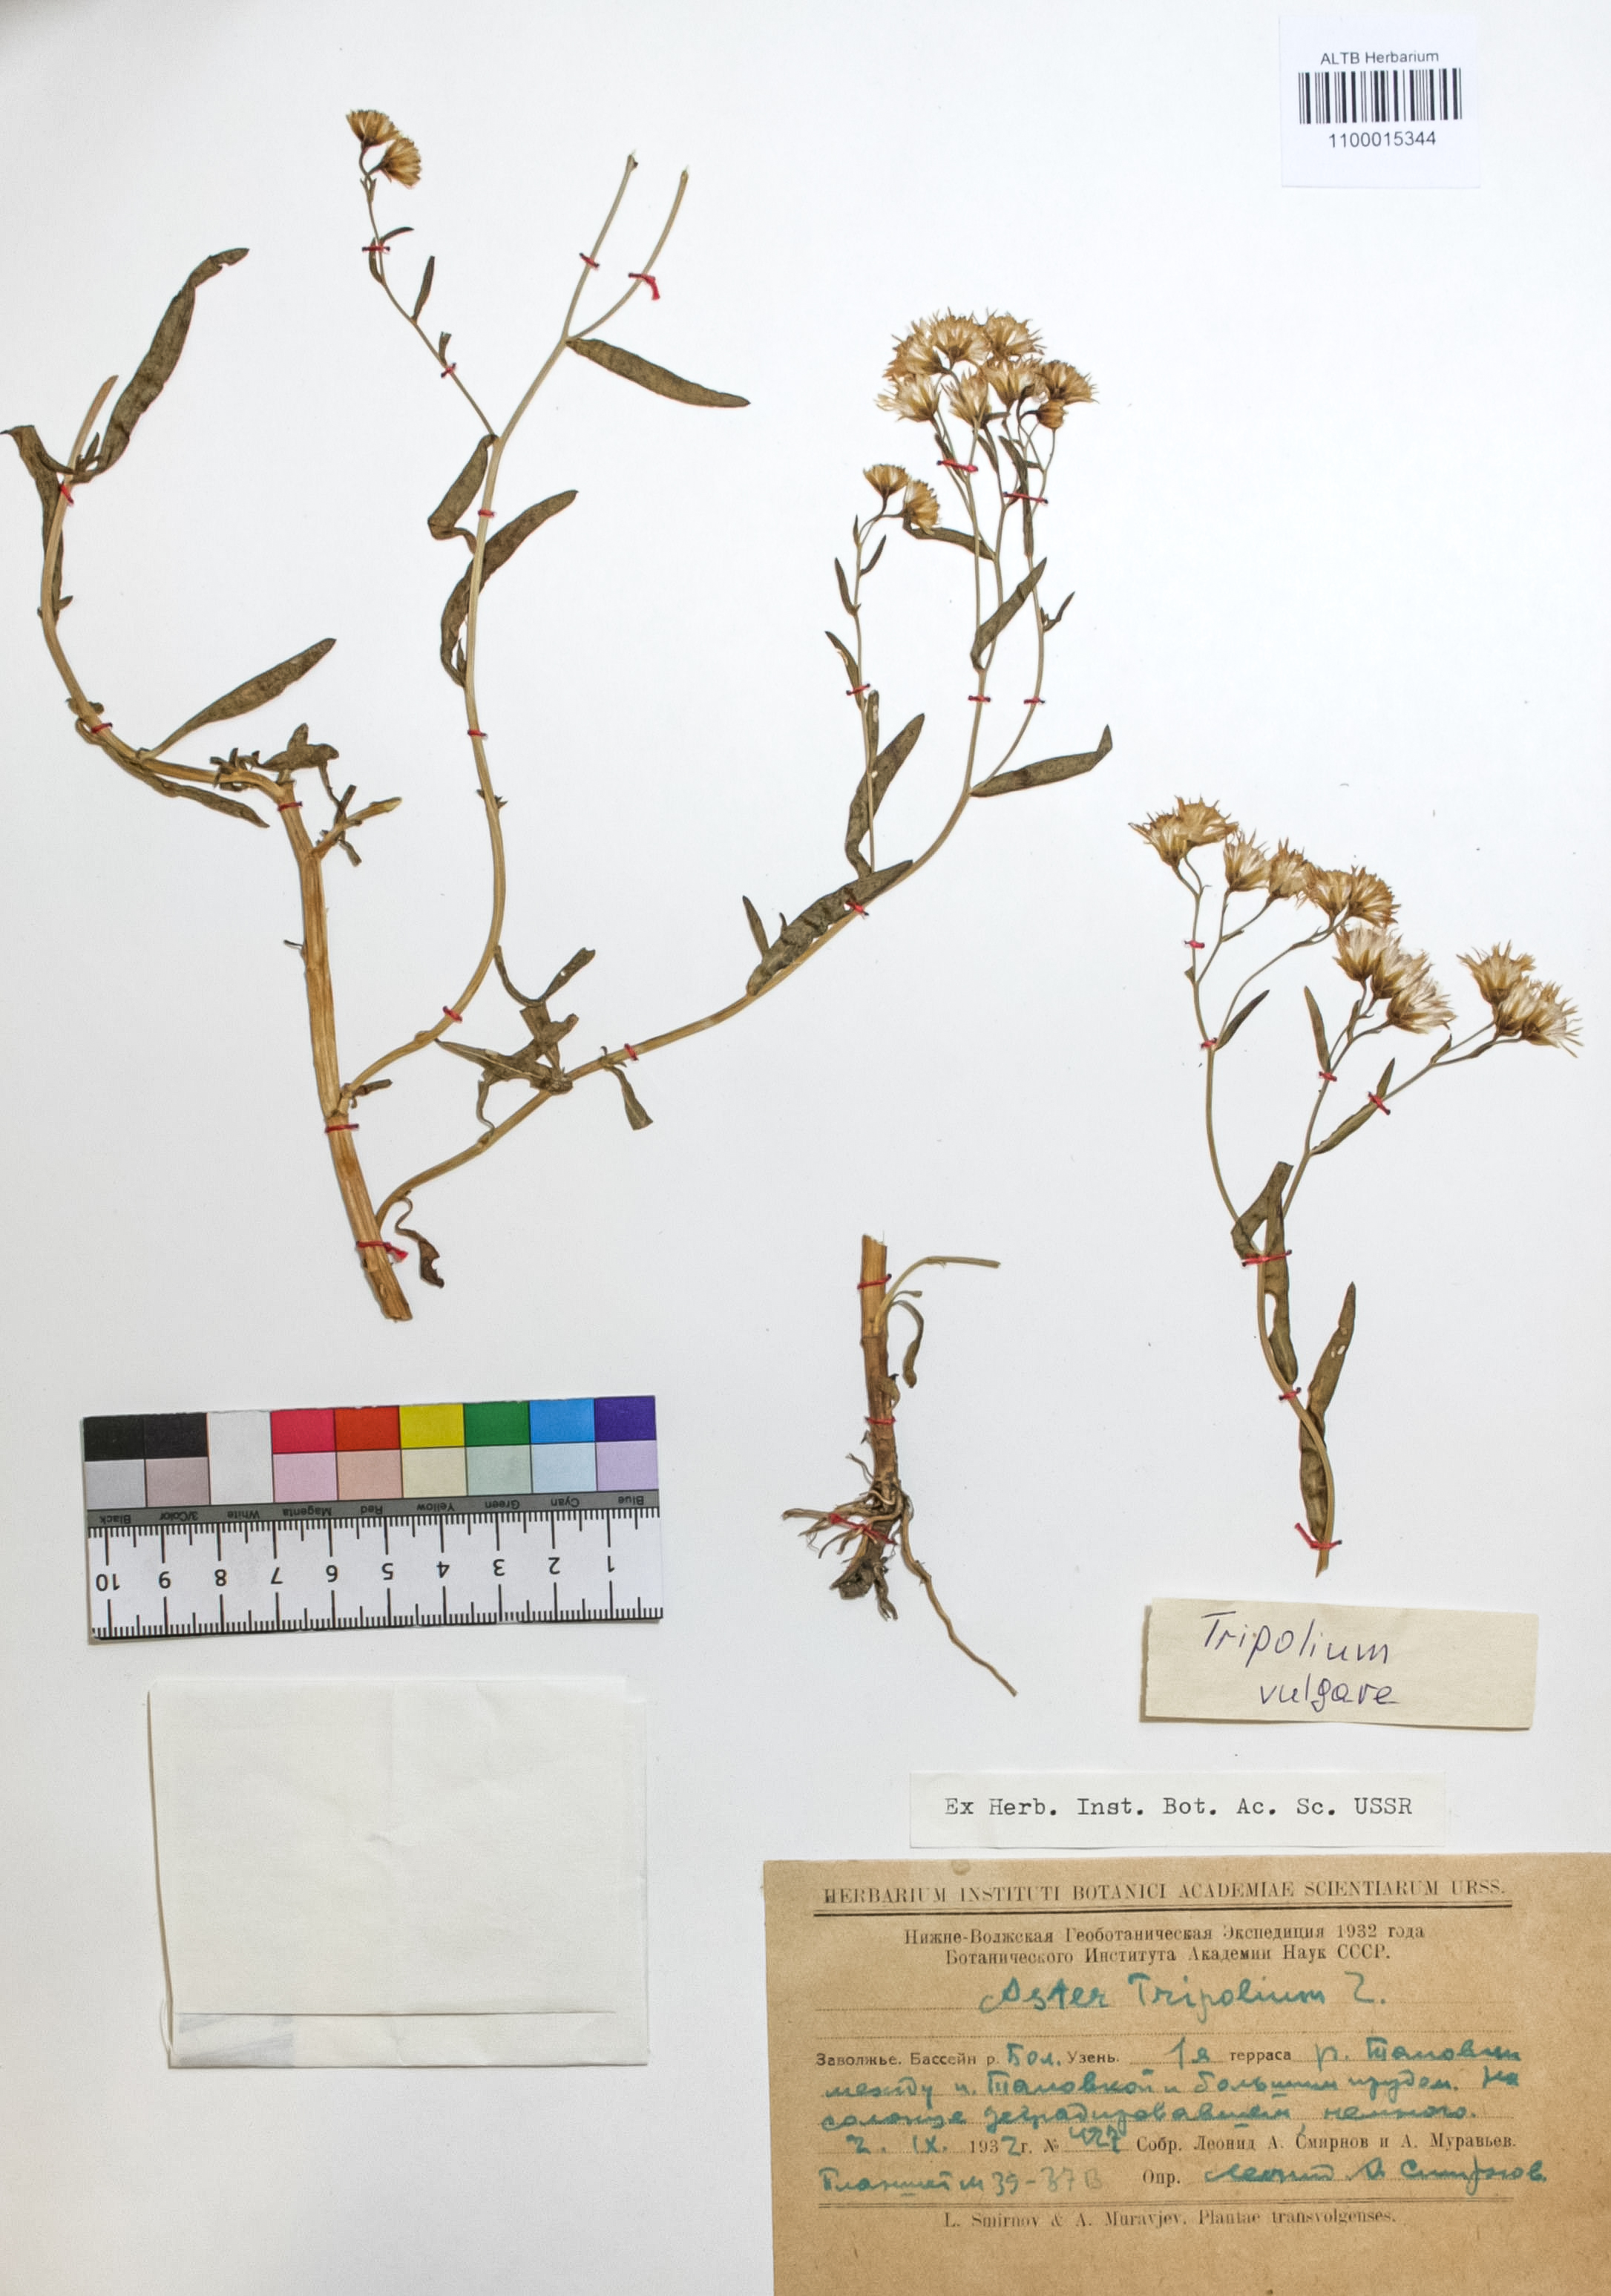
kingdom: Plantae
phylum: Tracheophyta
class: Magnoliopsida
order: Asterales
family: Asteraceae
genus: Tripolium
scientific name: Tripolium pannonicum
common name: Sea aster
